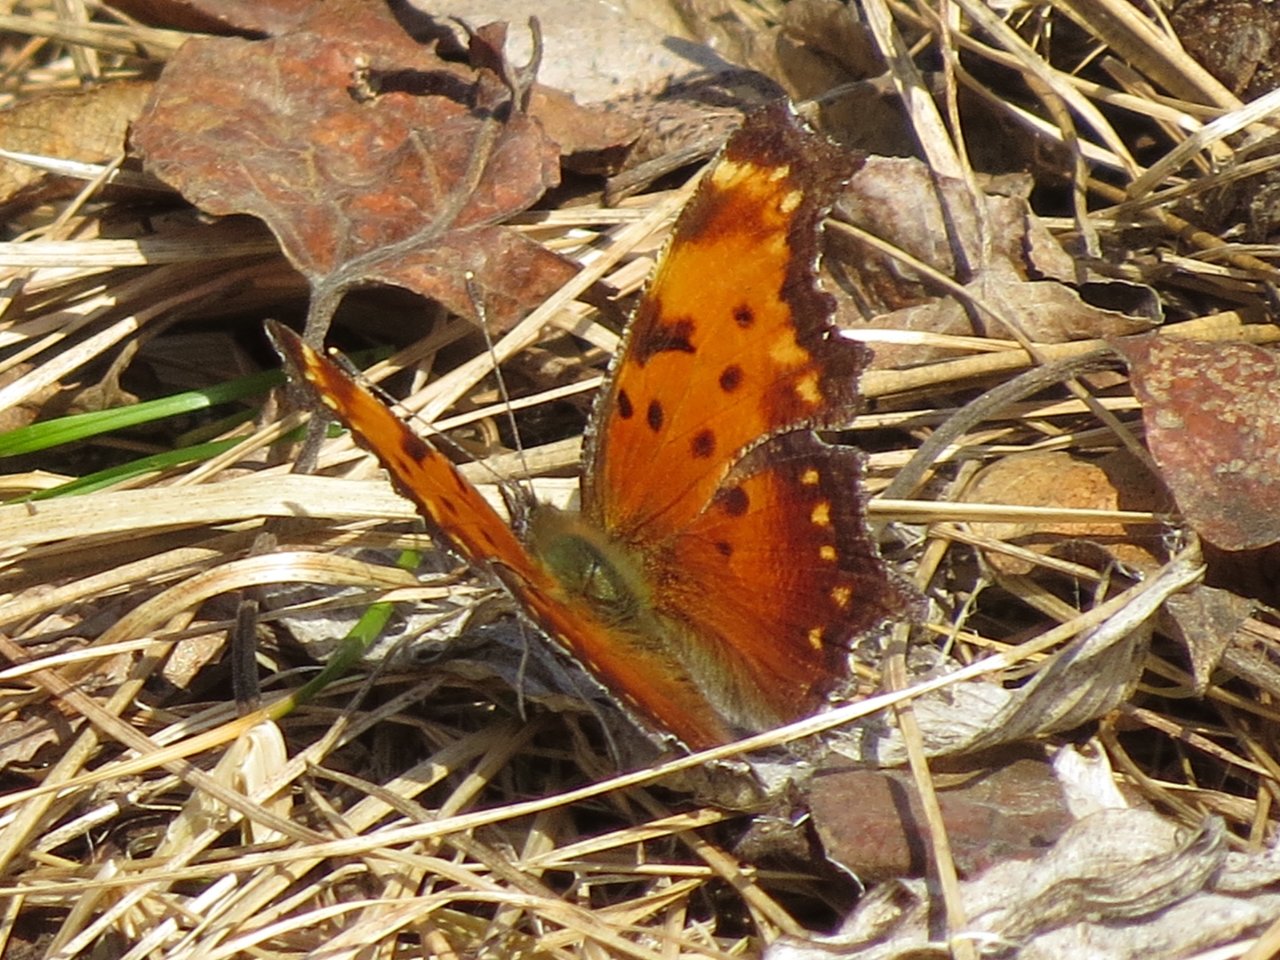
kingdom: Animalia
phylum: Arthropoda
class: Insecta
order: Lepidoptera
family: Nymphalidae
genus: Polygonia
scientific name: Polygonia
